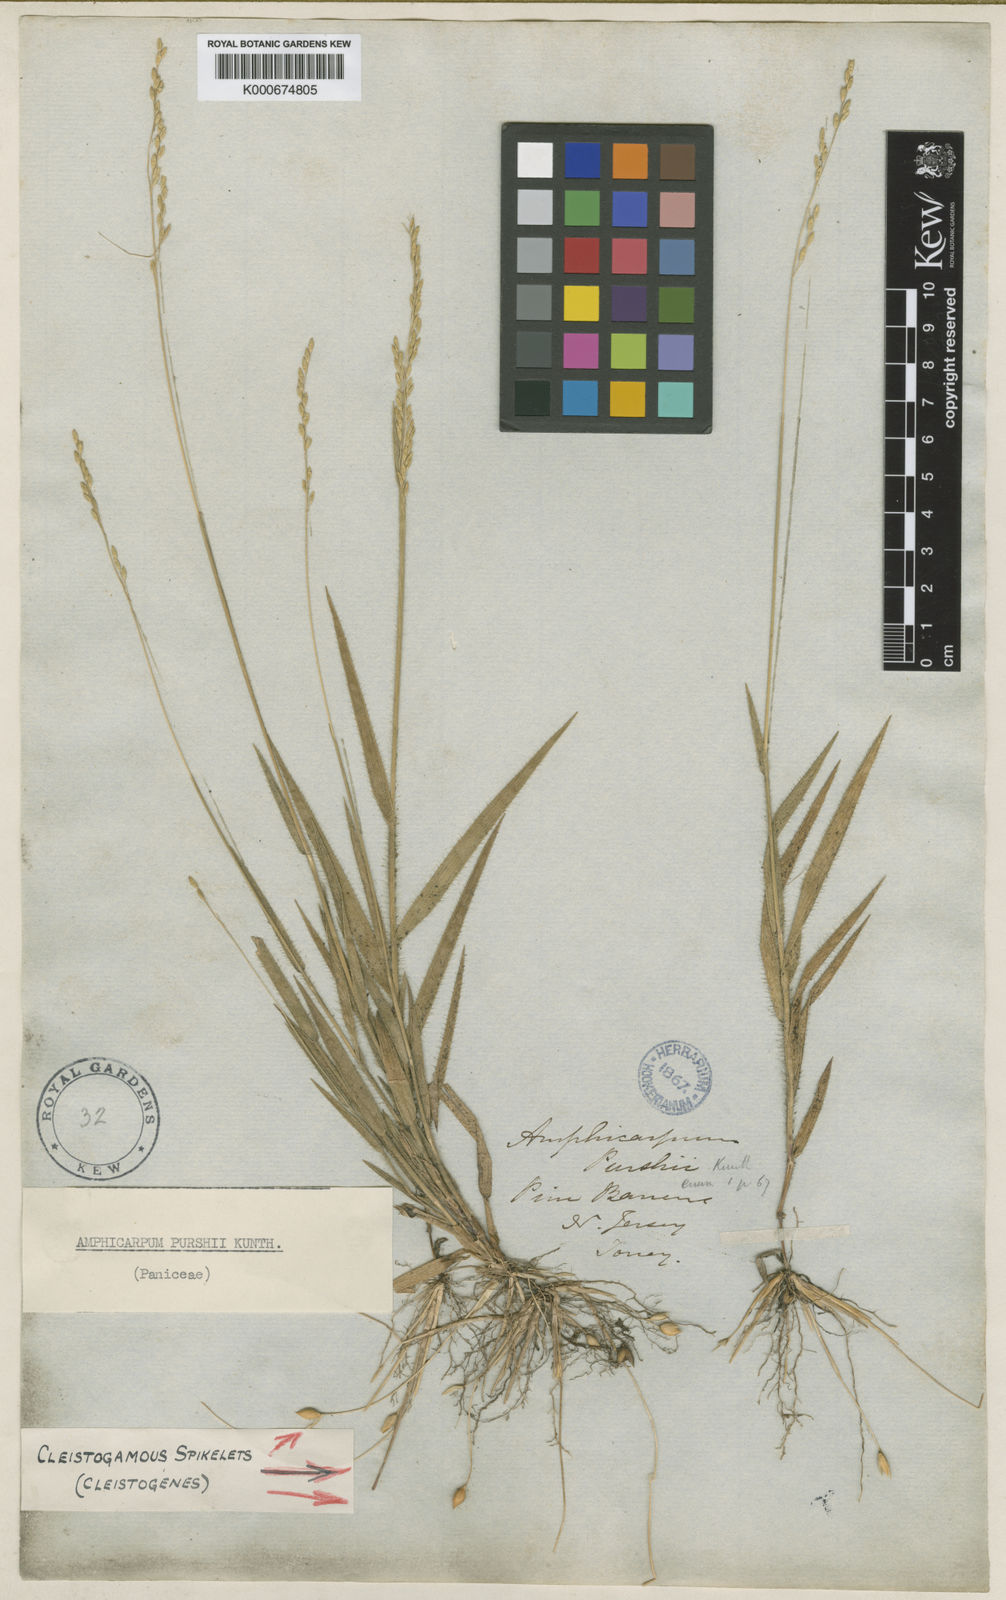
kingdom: Plantae
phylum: Tracheophyta
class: Liliopsida
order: Poales
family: Poaceae
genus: Amphicarpum
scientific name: Amphicarpum amphicarpon
